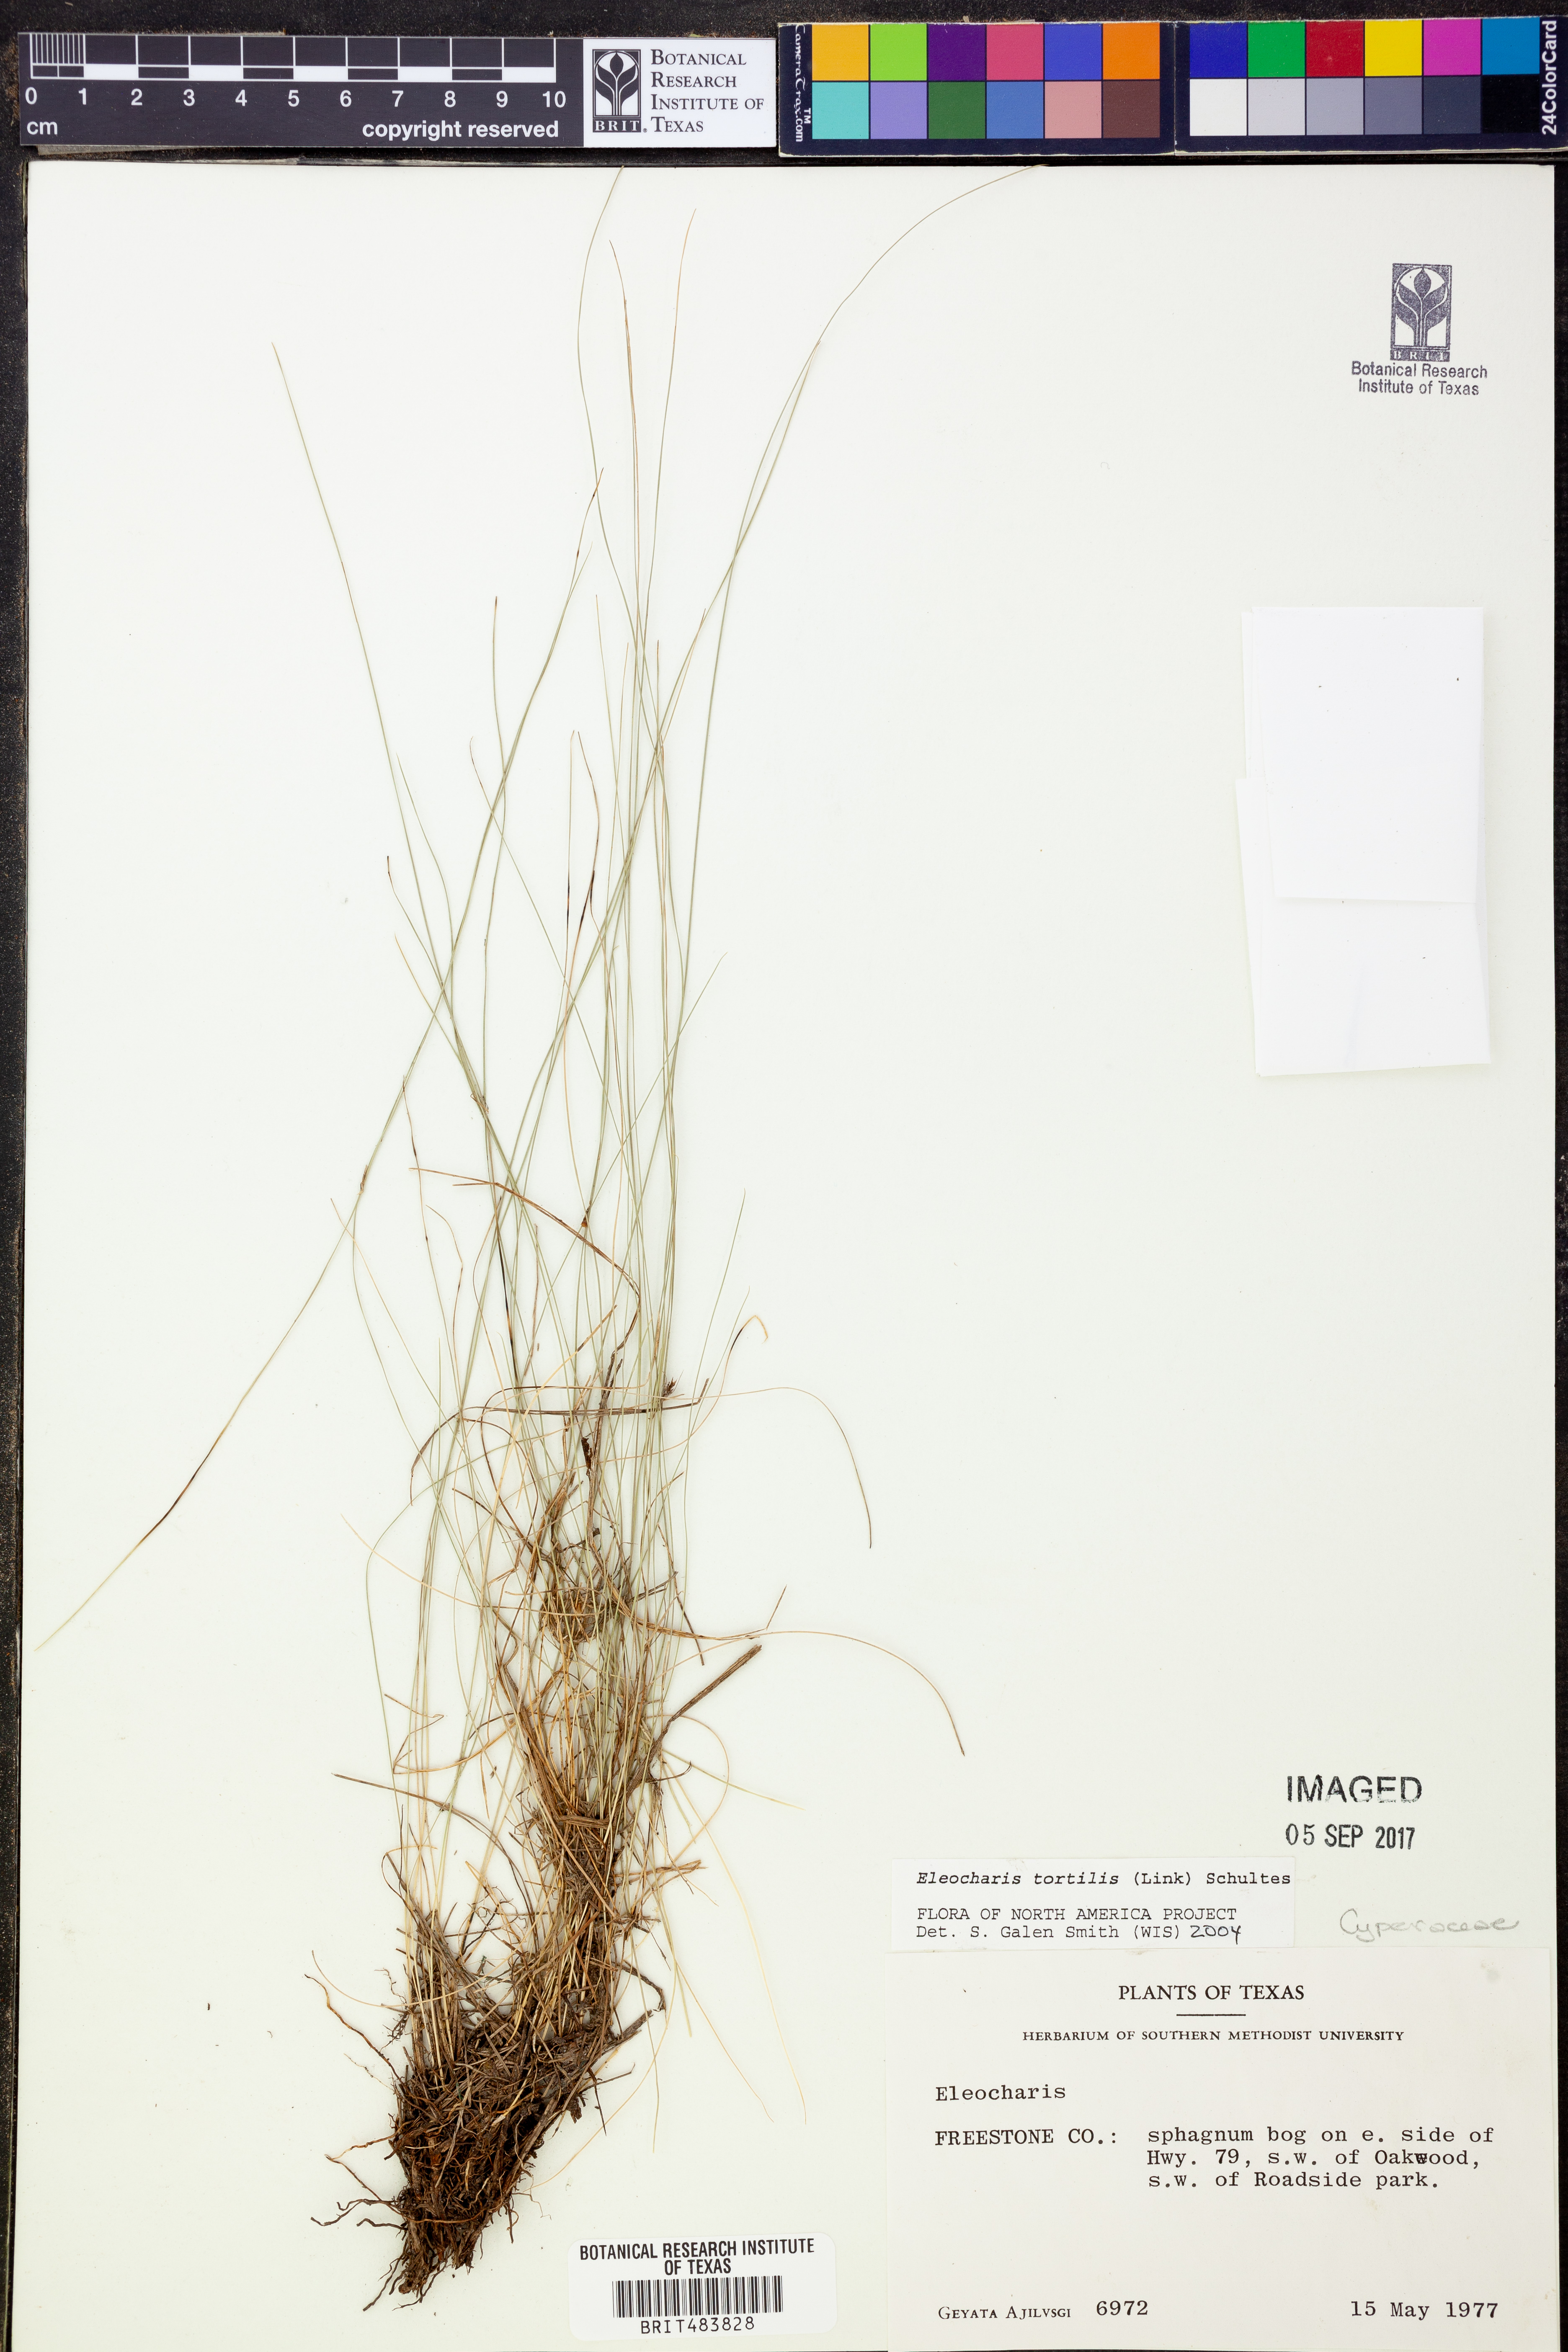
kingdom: Plantae
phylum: Tracheophyta
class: Liliopsida
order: Poales
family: Cyperaceae
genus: Eleocharis
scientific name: Eleocharis
